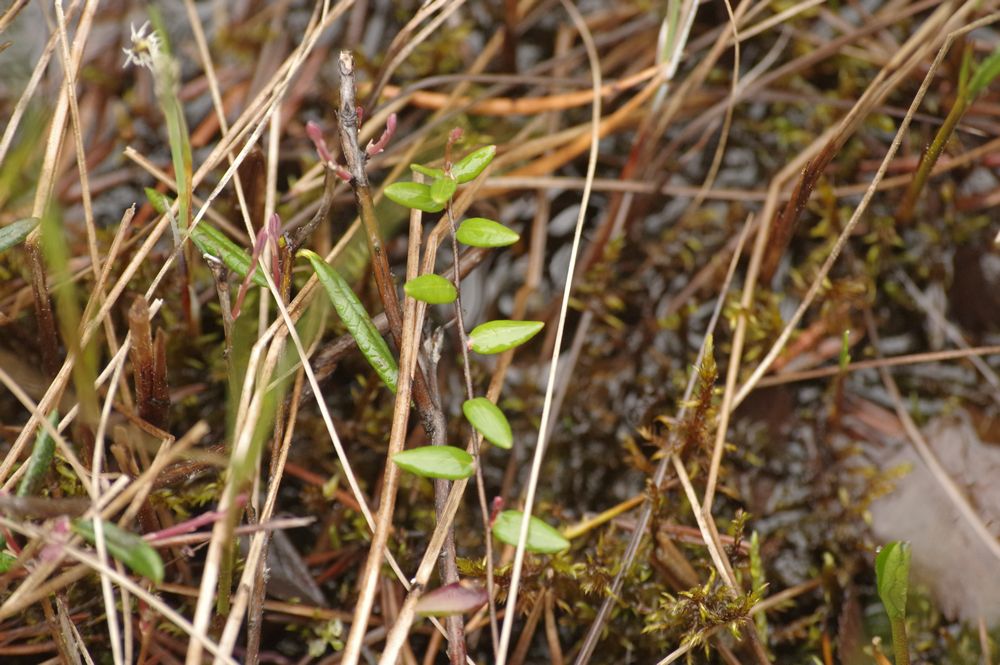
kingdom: Plantae
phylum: Tracheophyta
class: Magnoliopsida
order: Ericales
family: Ericaceae
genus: Oxycoccus
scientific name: Oxycoccus
